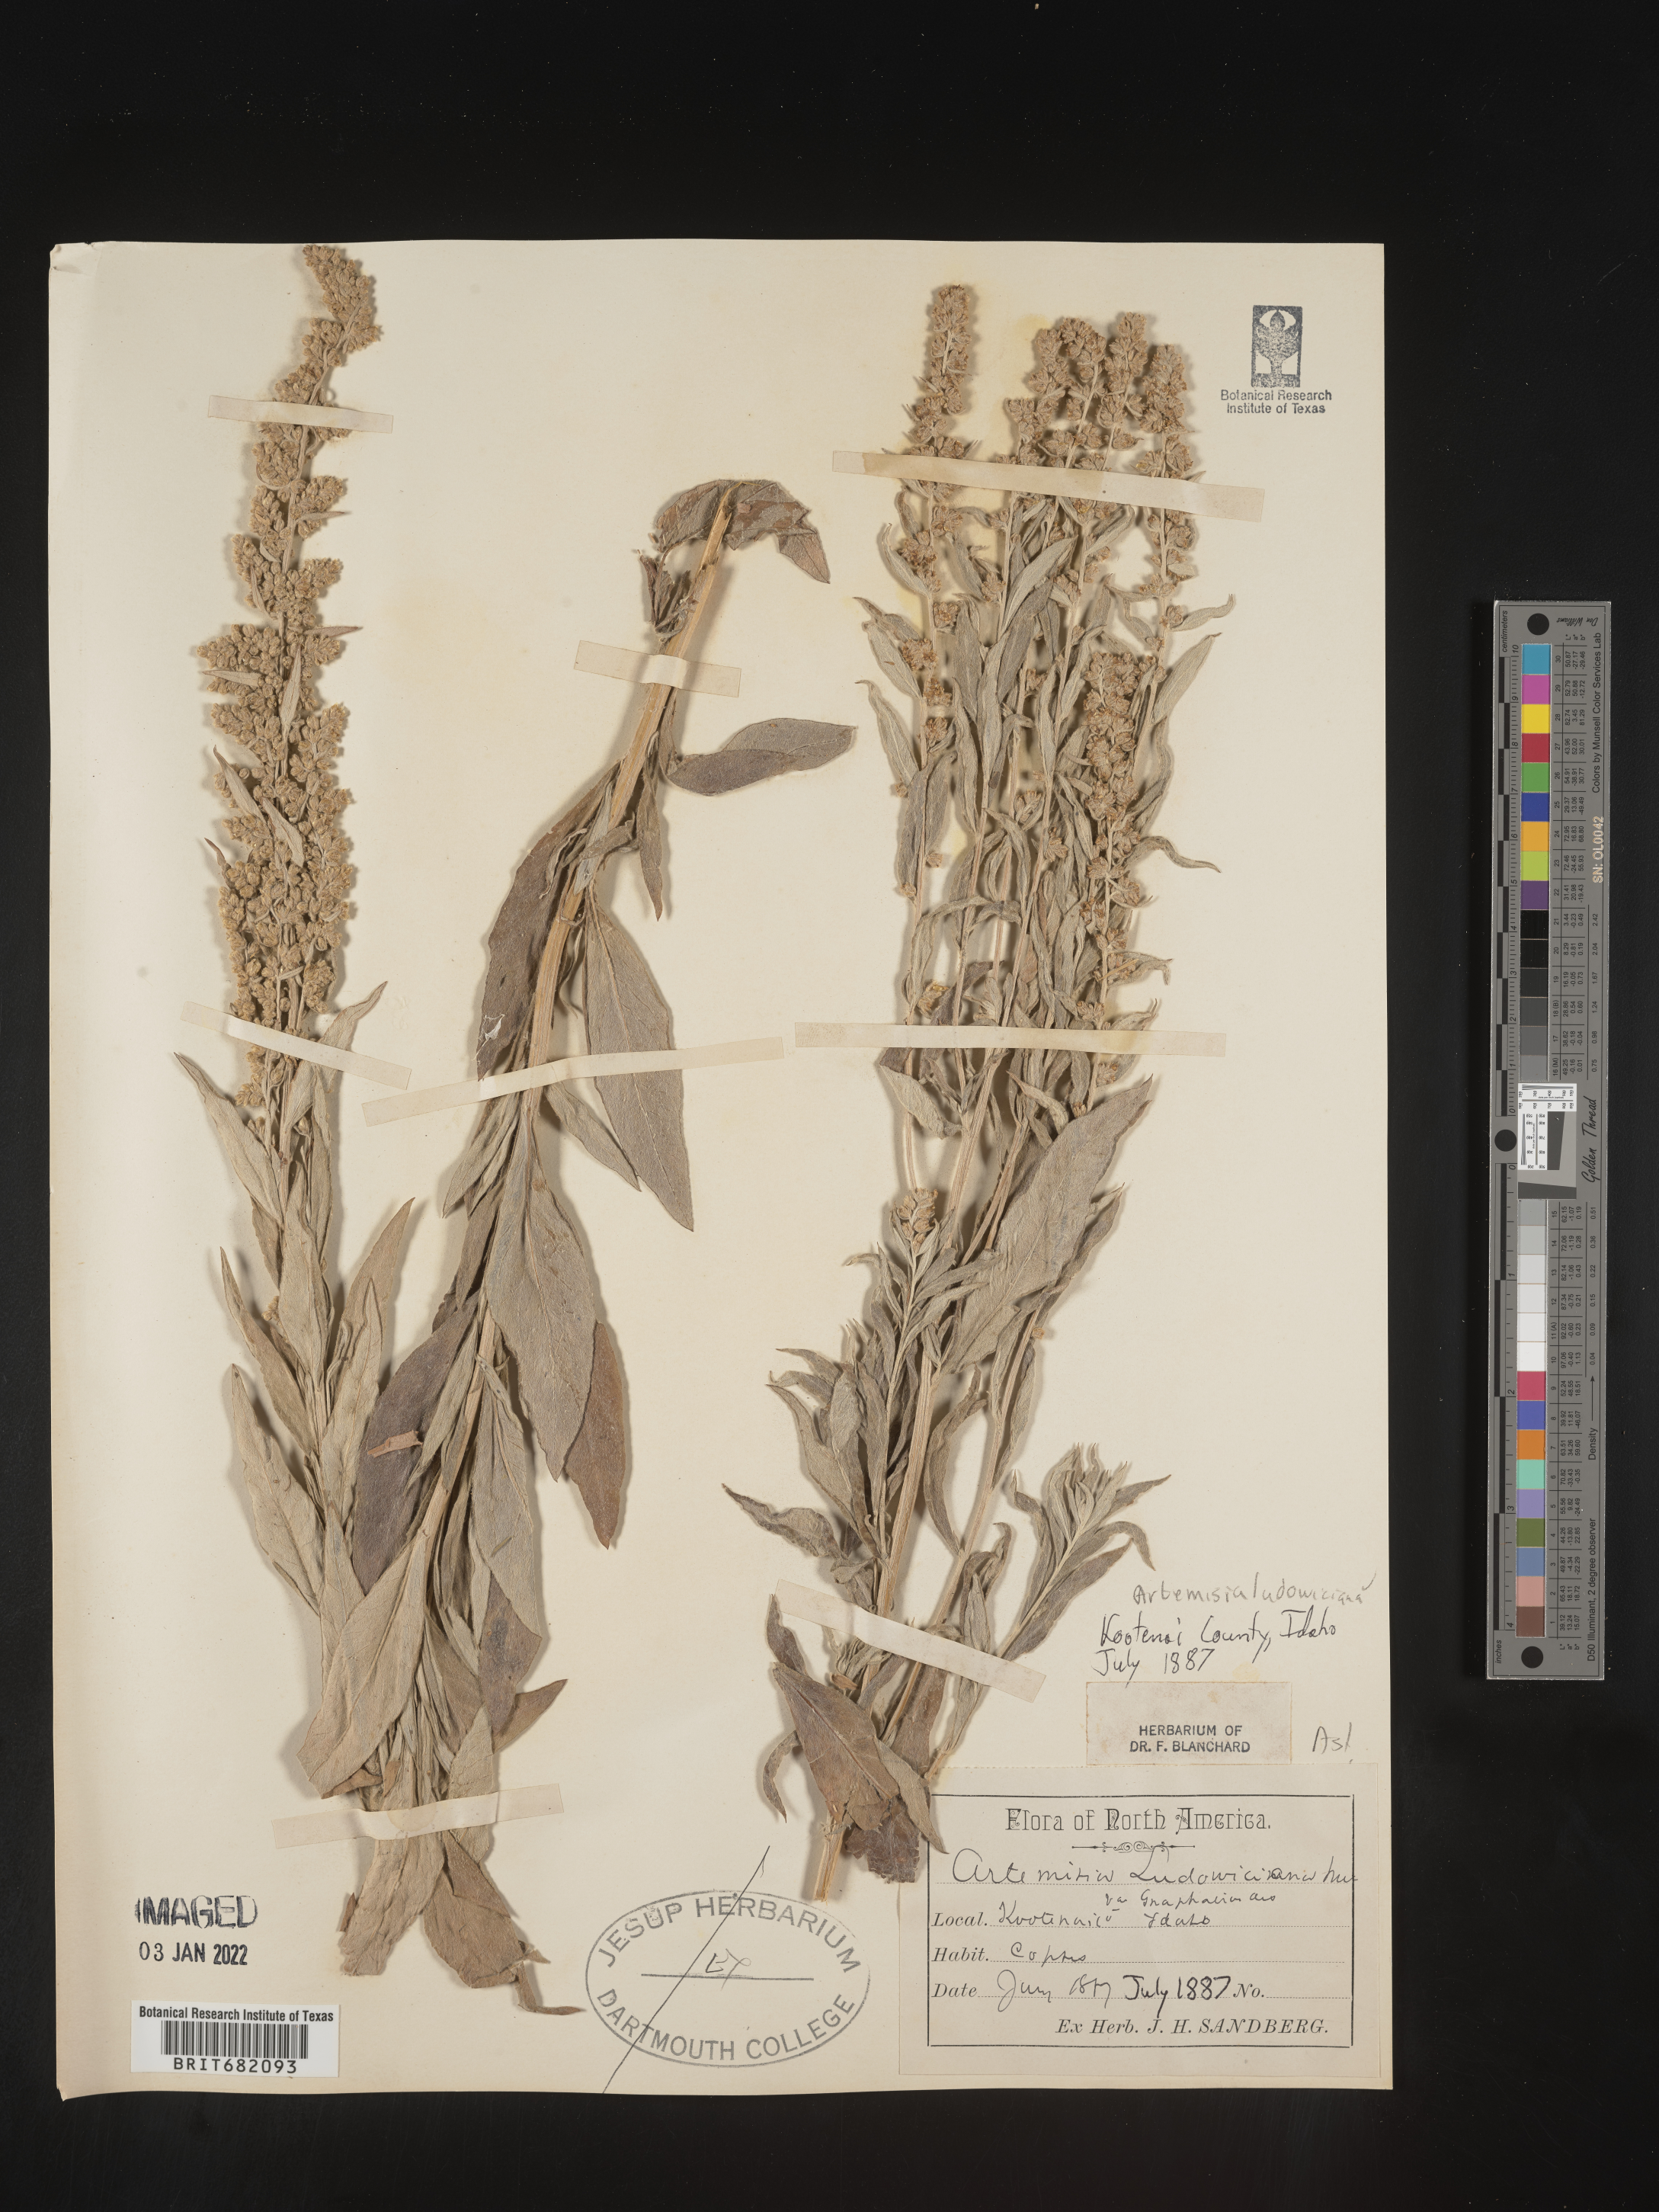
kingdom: Plantae
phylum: Tracheophyta
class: Magnoliopsida
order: Asterales
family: Asteraceae
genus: Artemisia
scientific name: Artemisia ludoviciana
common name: Western mugwort
